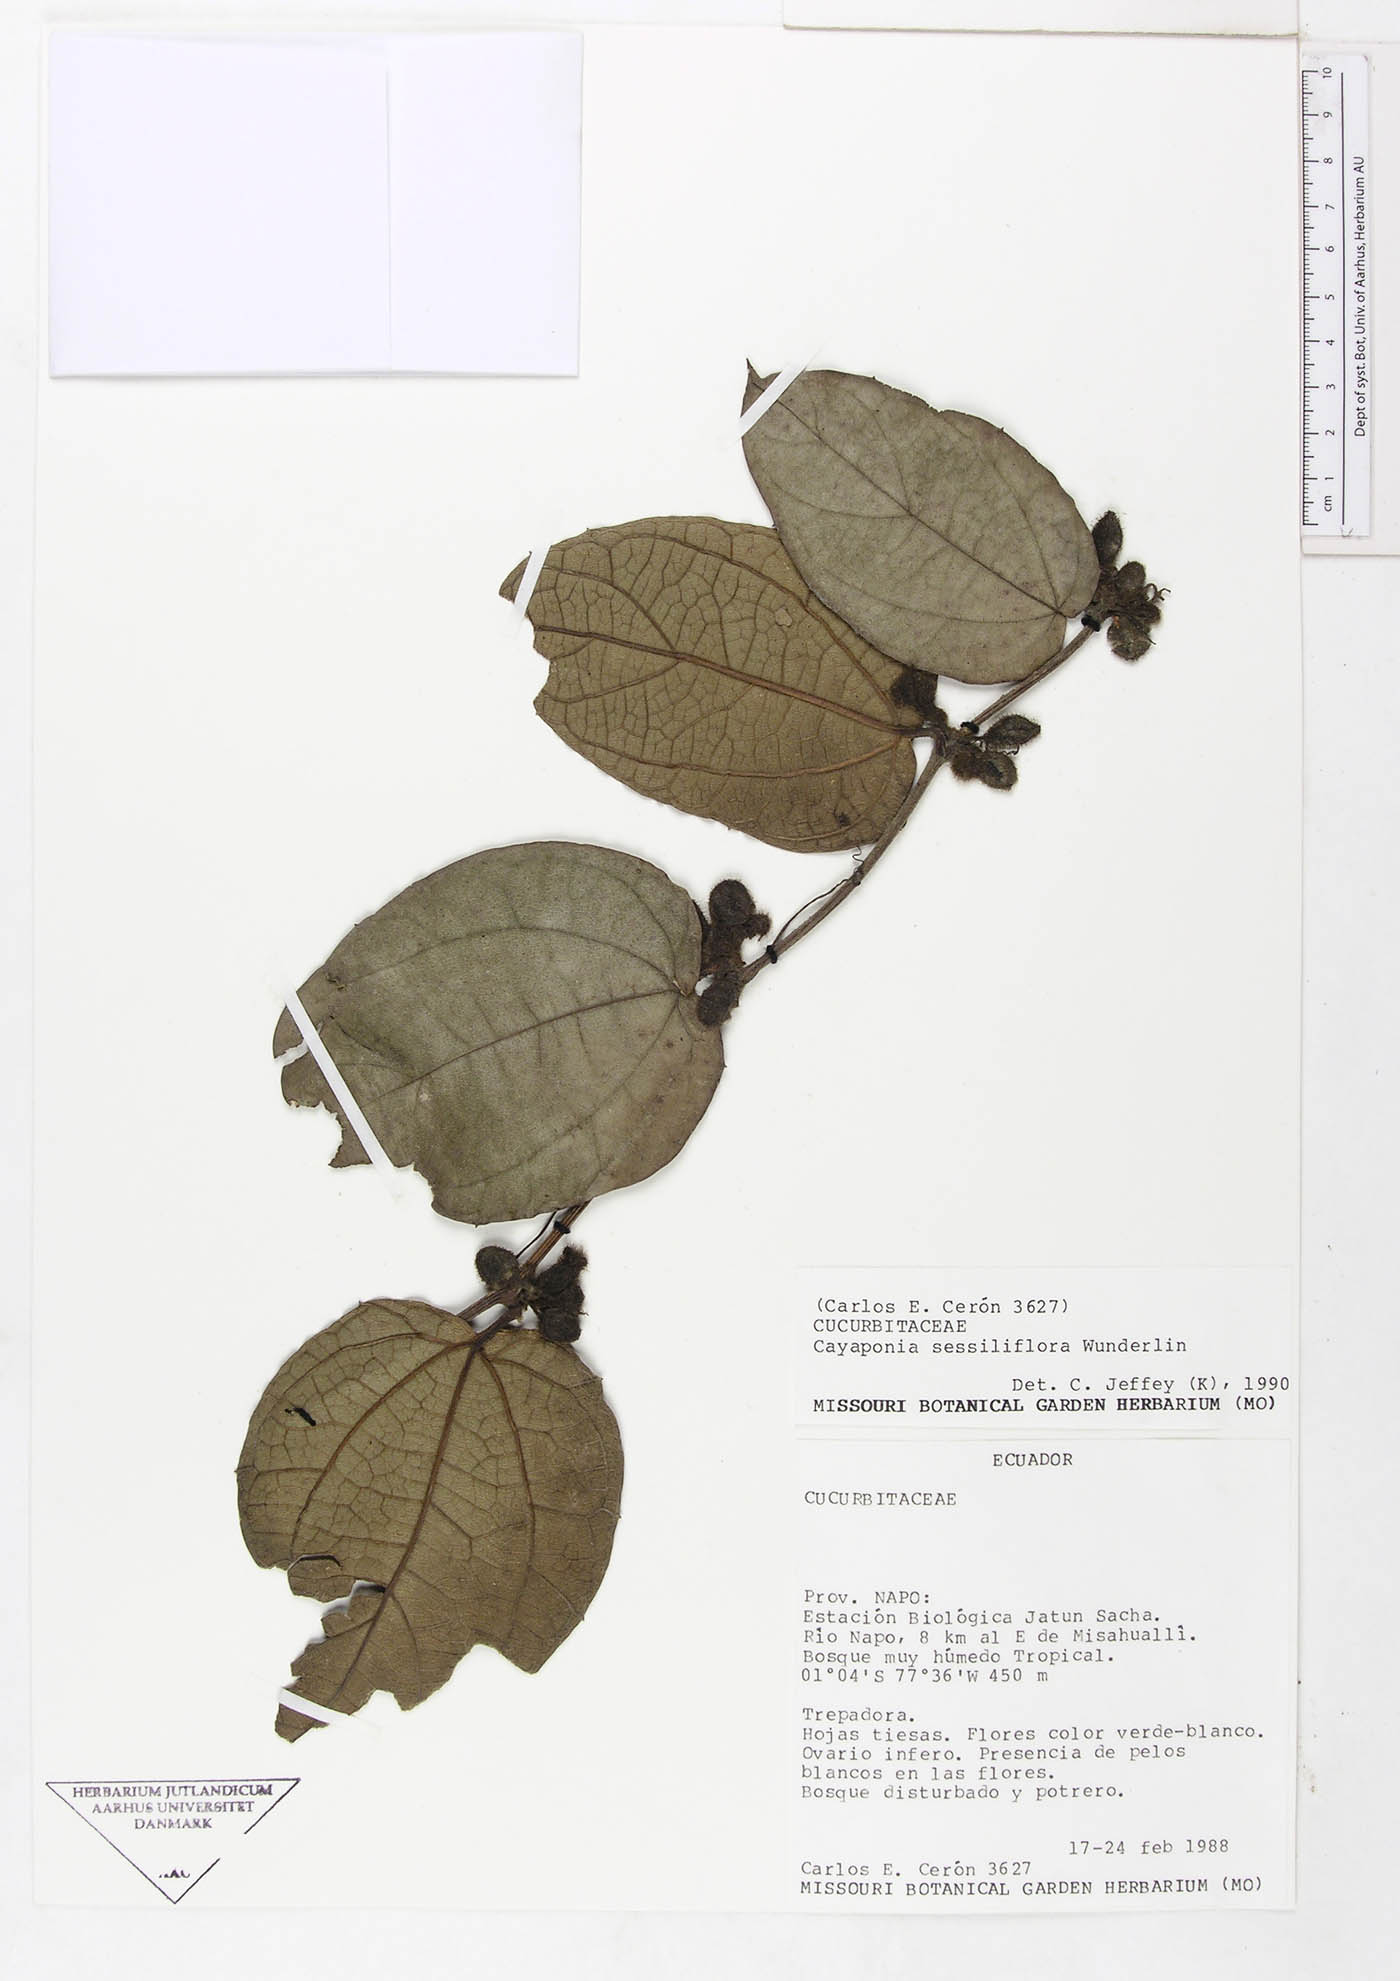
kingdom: Plantae
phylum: Tracheophyta
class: Magnoliopsida
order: Cucurbitales
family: Cucurbitaceae
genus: Cayaponia
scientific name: Cayaponia sessiliflora
